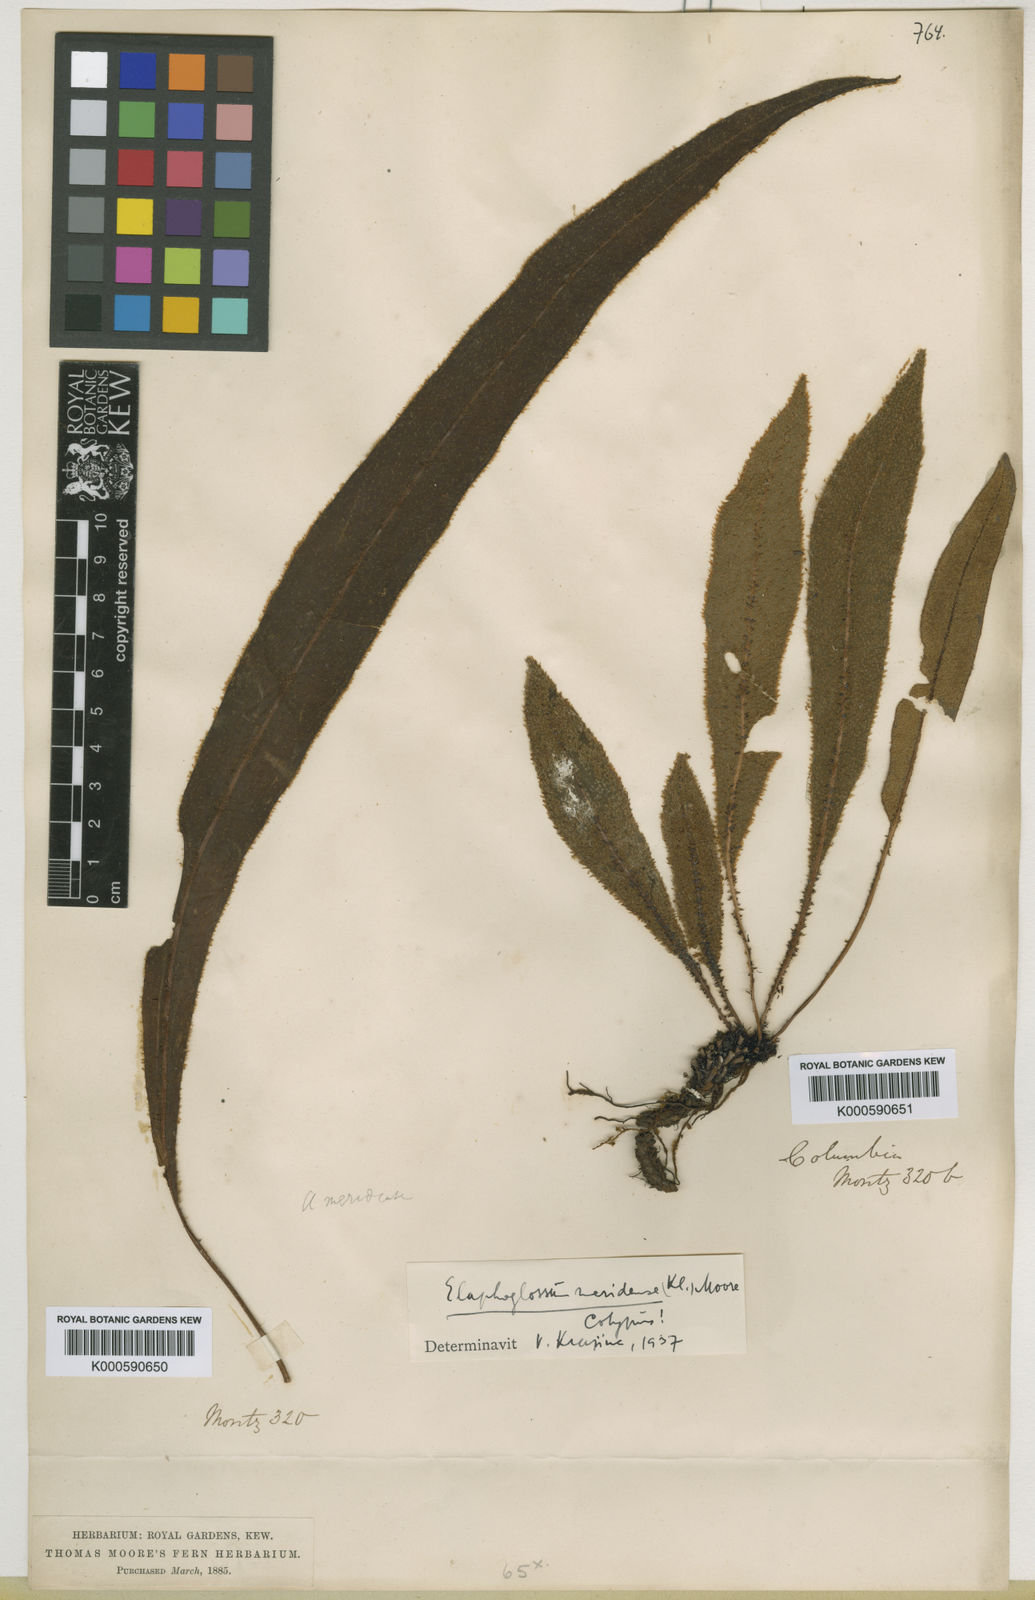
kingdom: Plantae
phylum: Tracheophyta
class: Polypodiopsida
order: Polypodiales
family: Dryopteridaceae
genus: Elaphoglossum
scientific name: Elaphoglossum meridense
